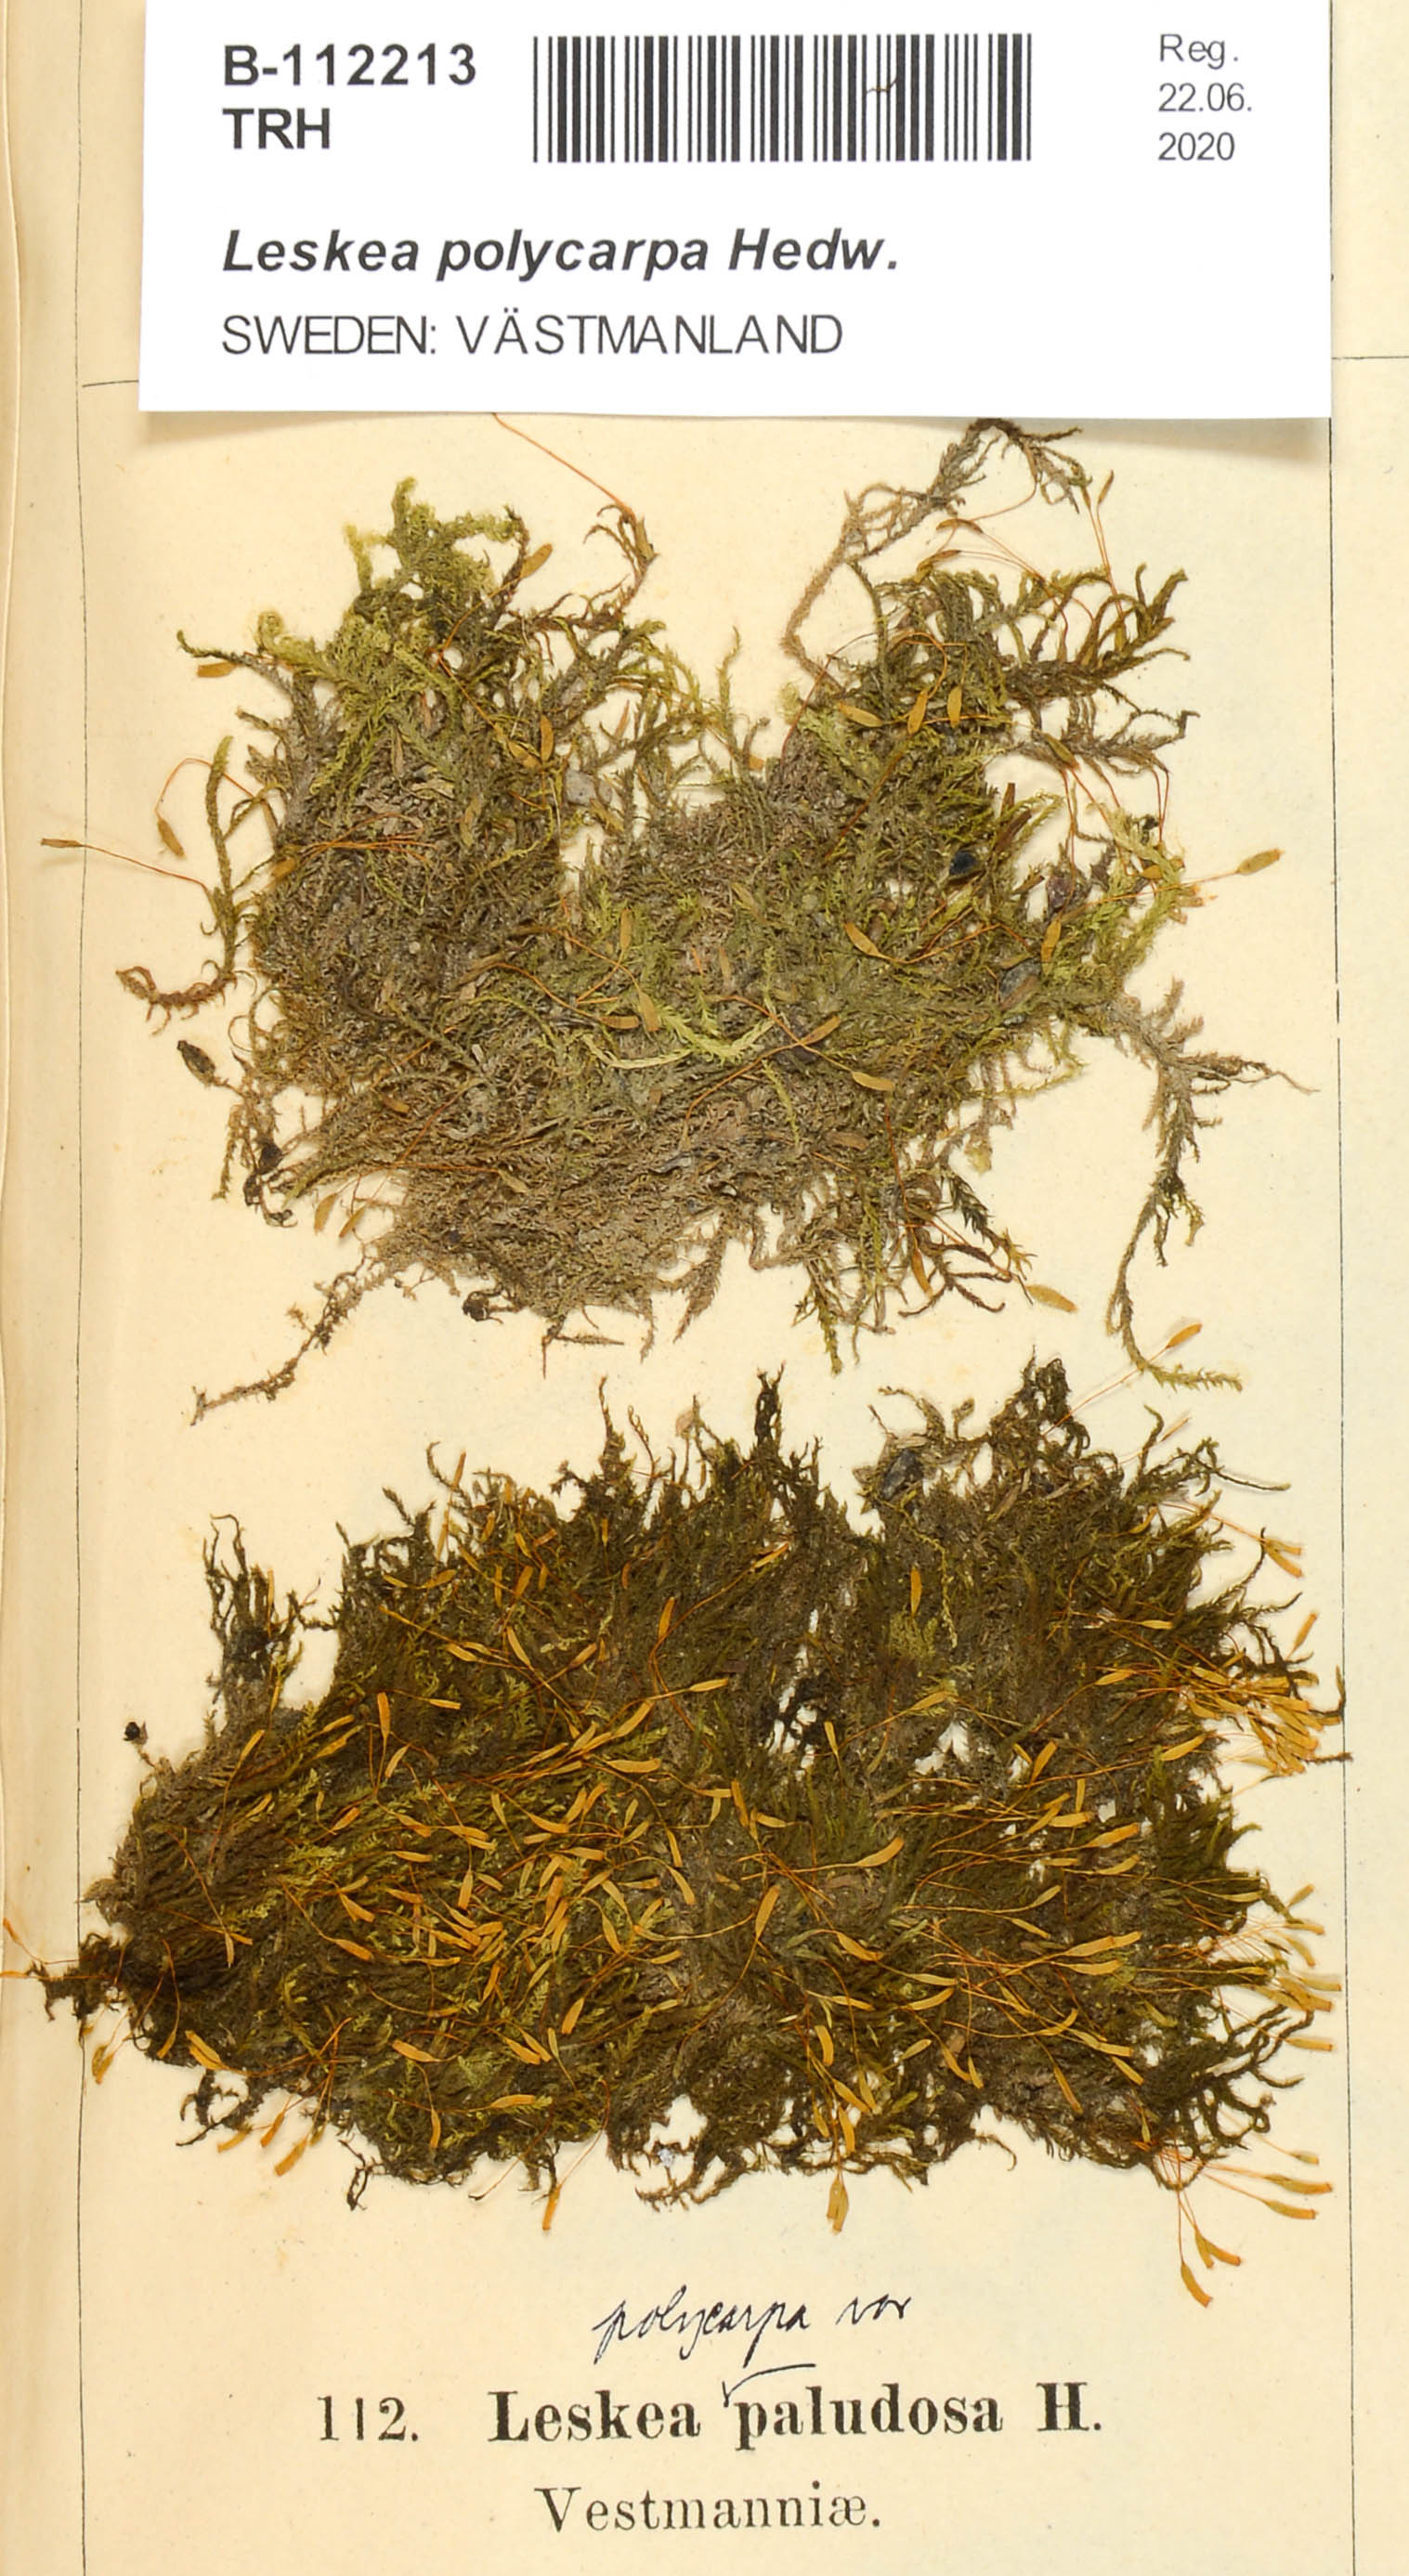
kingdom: Plantae
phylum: Bryophyta
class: Bryopsida
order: Hypnales
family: Leskeaceae
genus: Leskea
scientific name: Leskea polycarpa
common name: Many-fruited leske's moss
